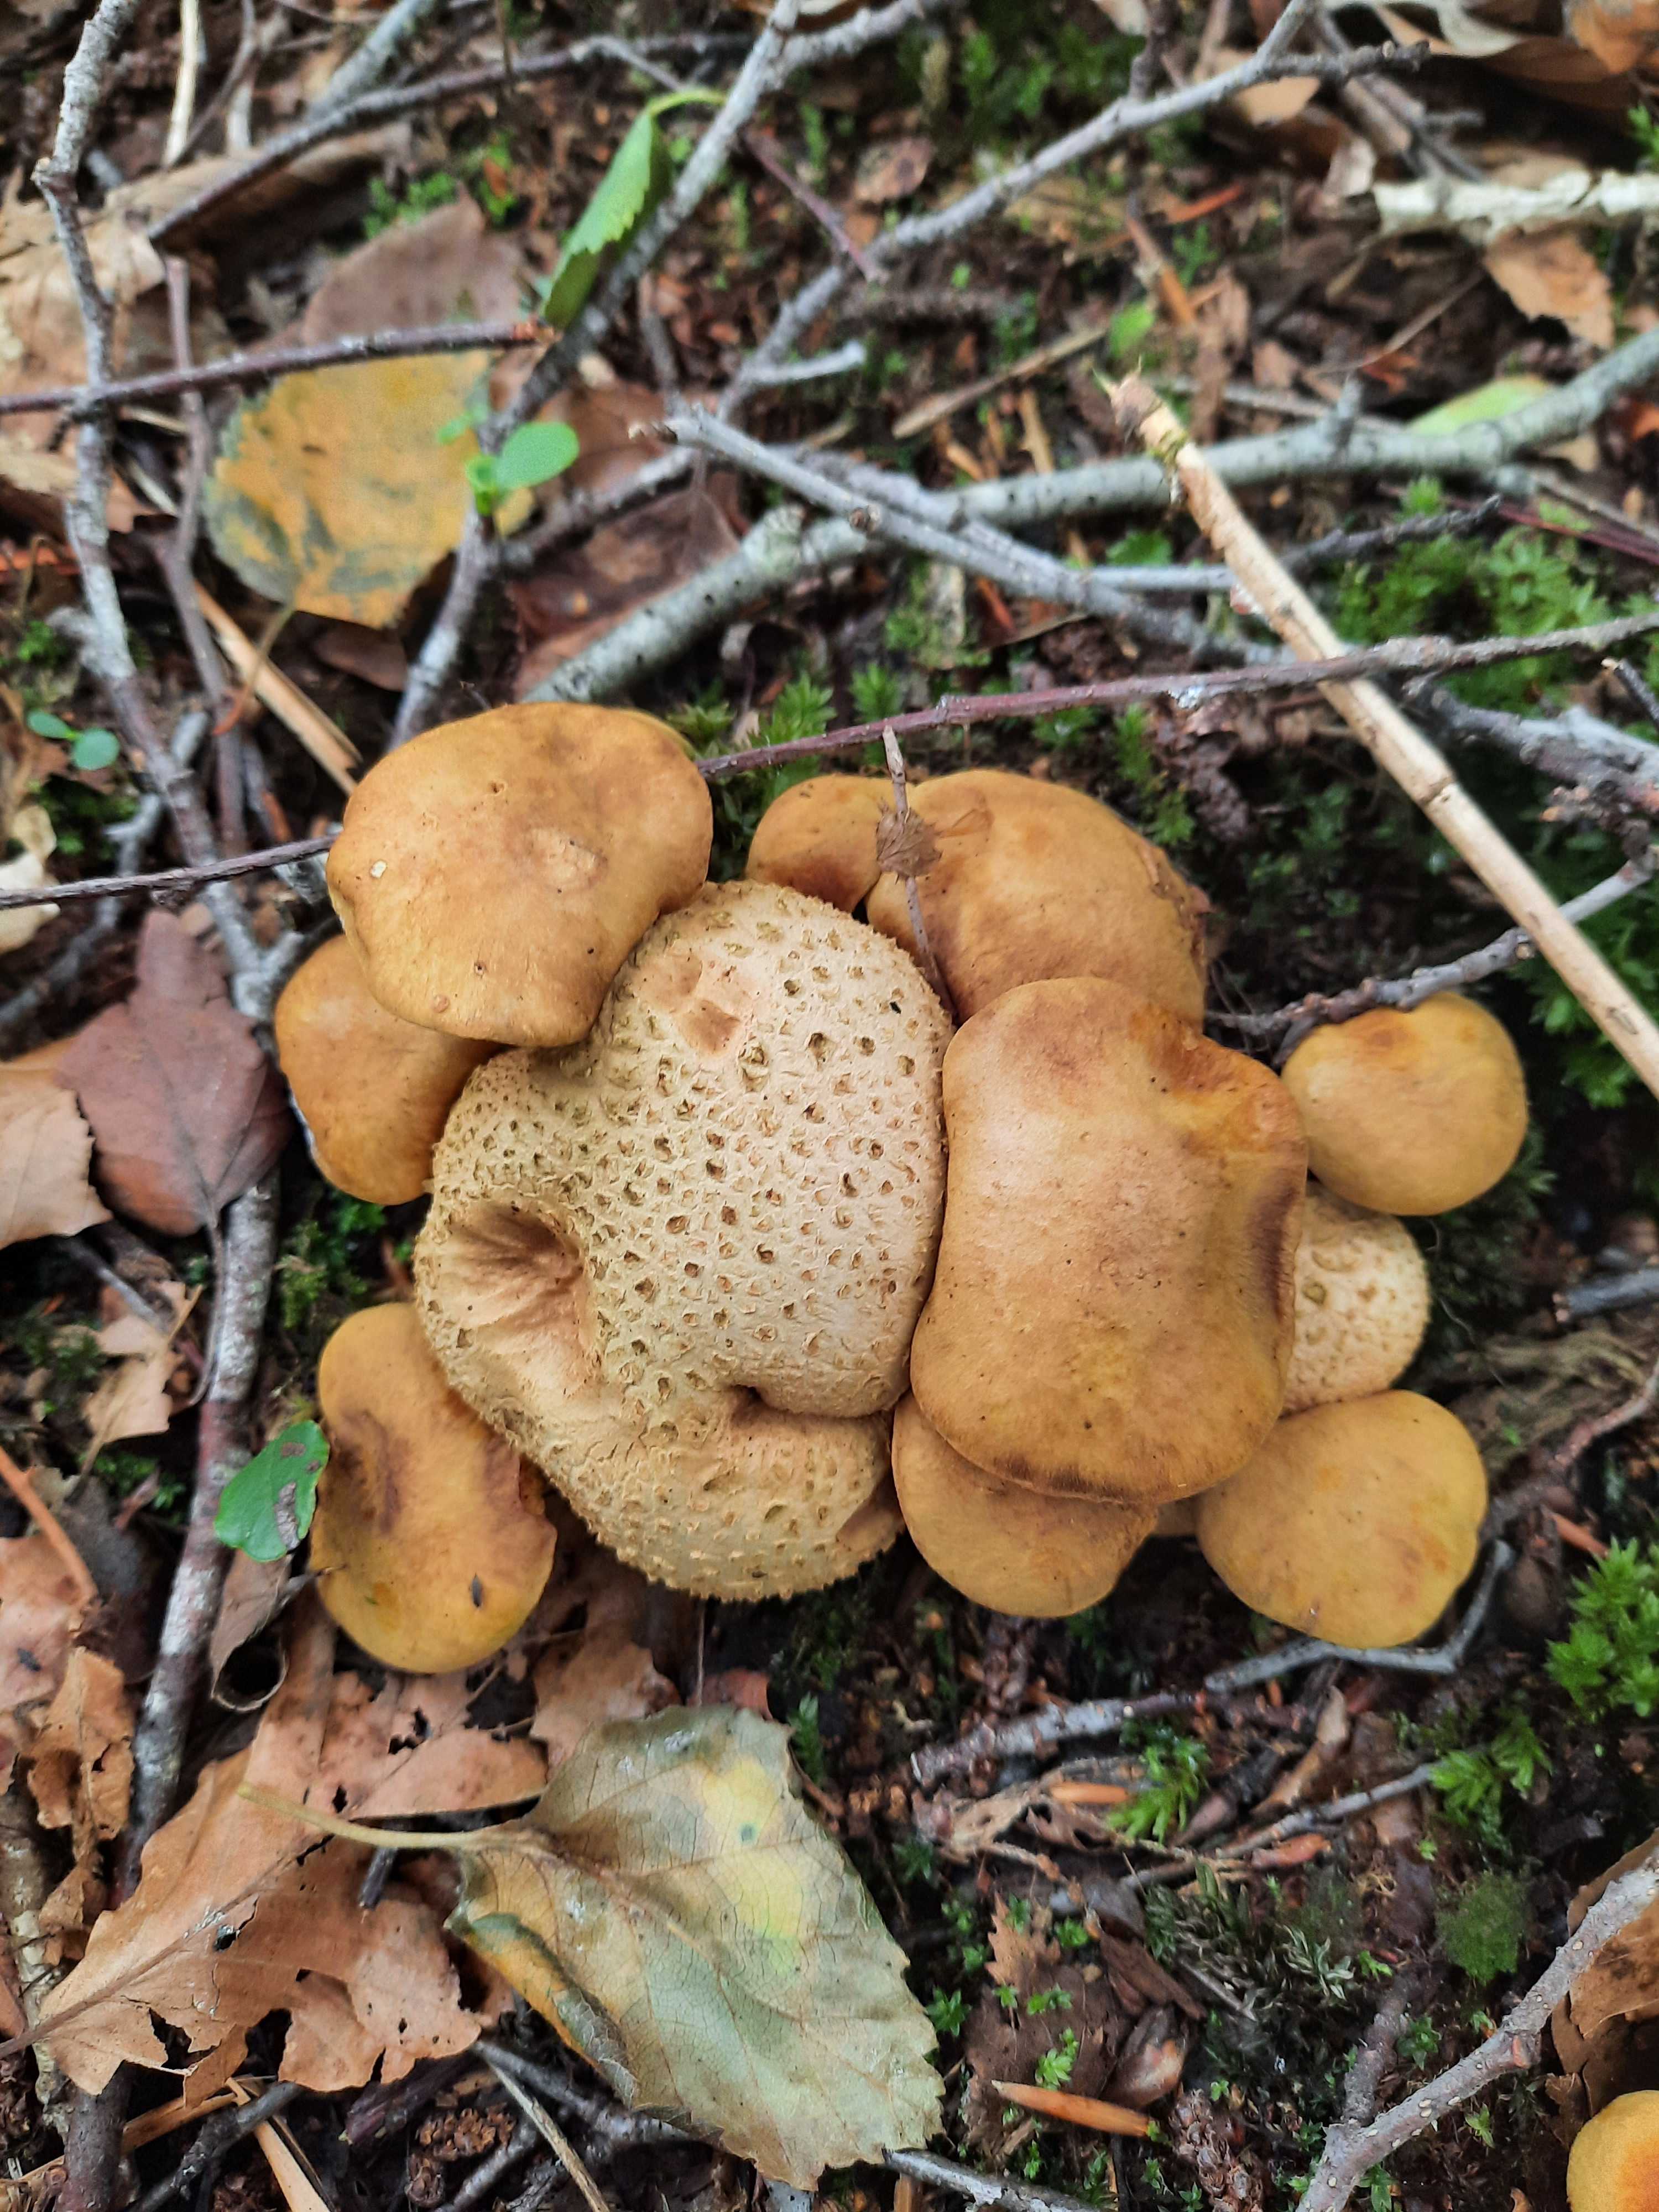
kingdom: Fungi
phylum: Basidiomycota
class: Agaricomycetes
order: Boletales
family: Boletaceae
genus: Pseudoboletus
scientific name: Pseudoboletus parasiticus
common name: snyltende rørhat
